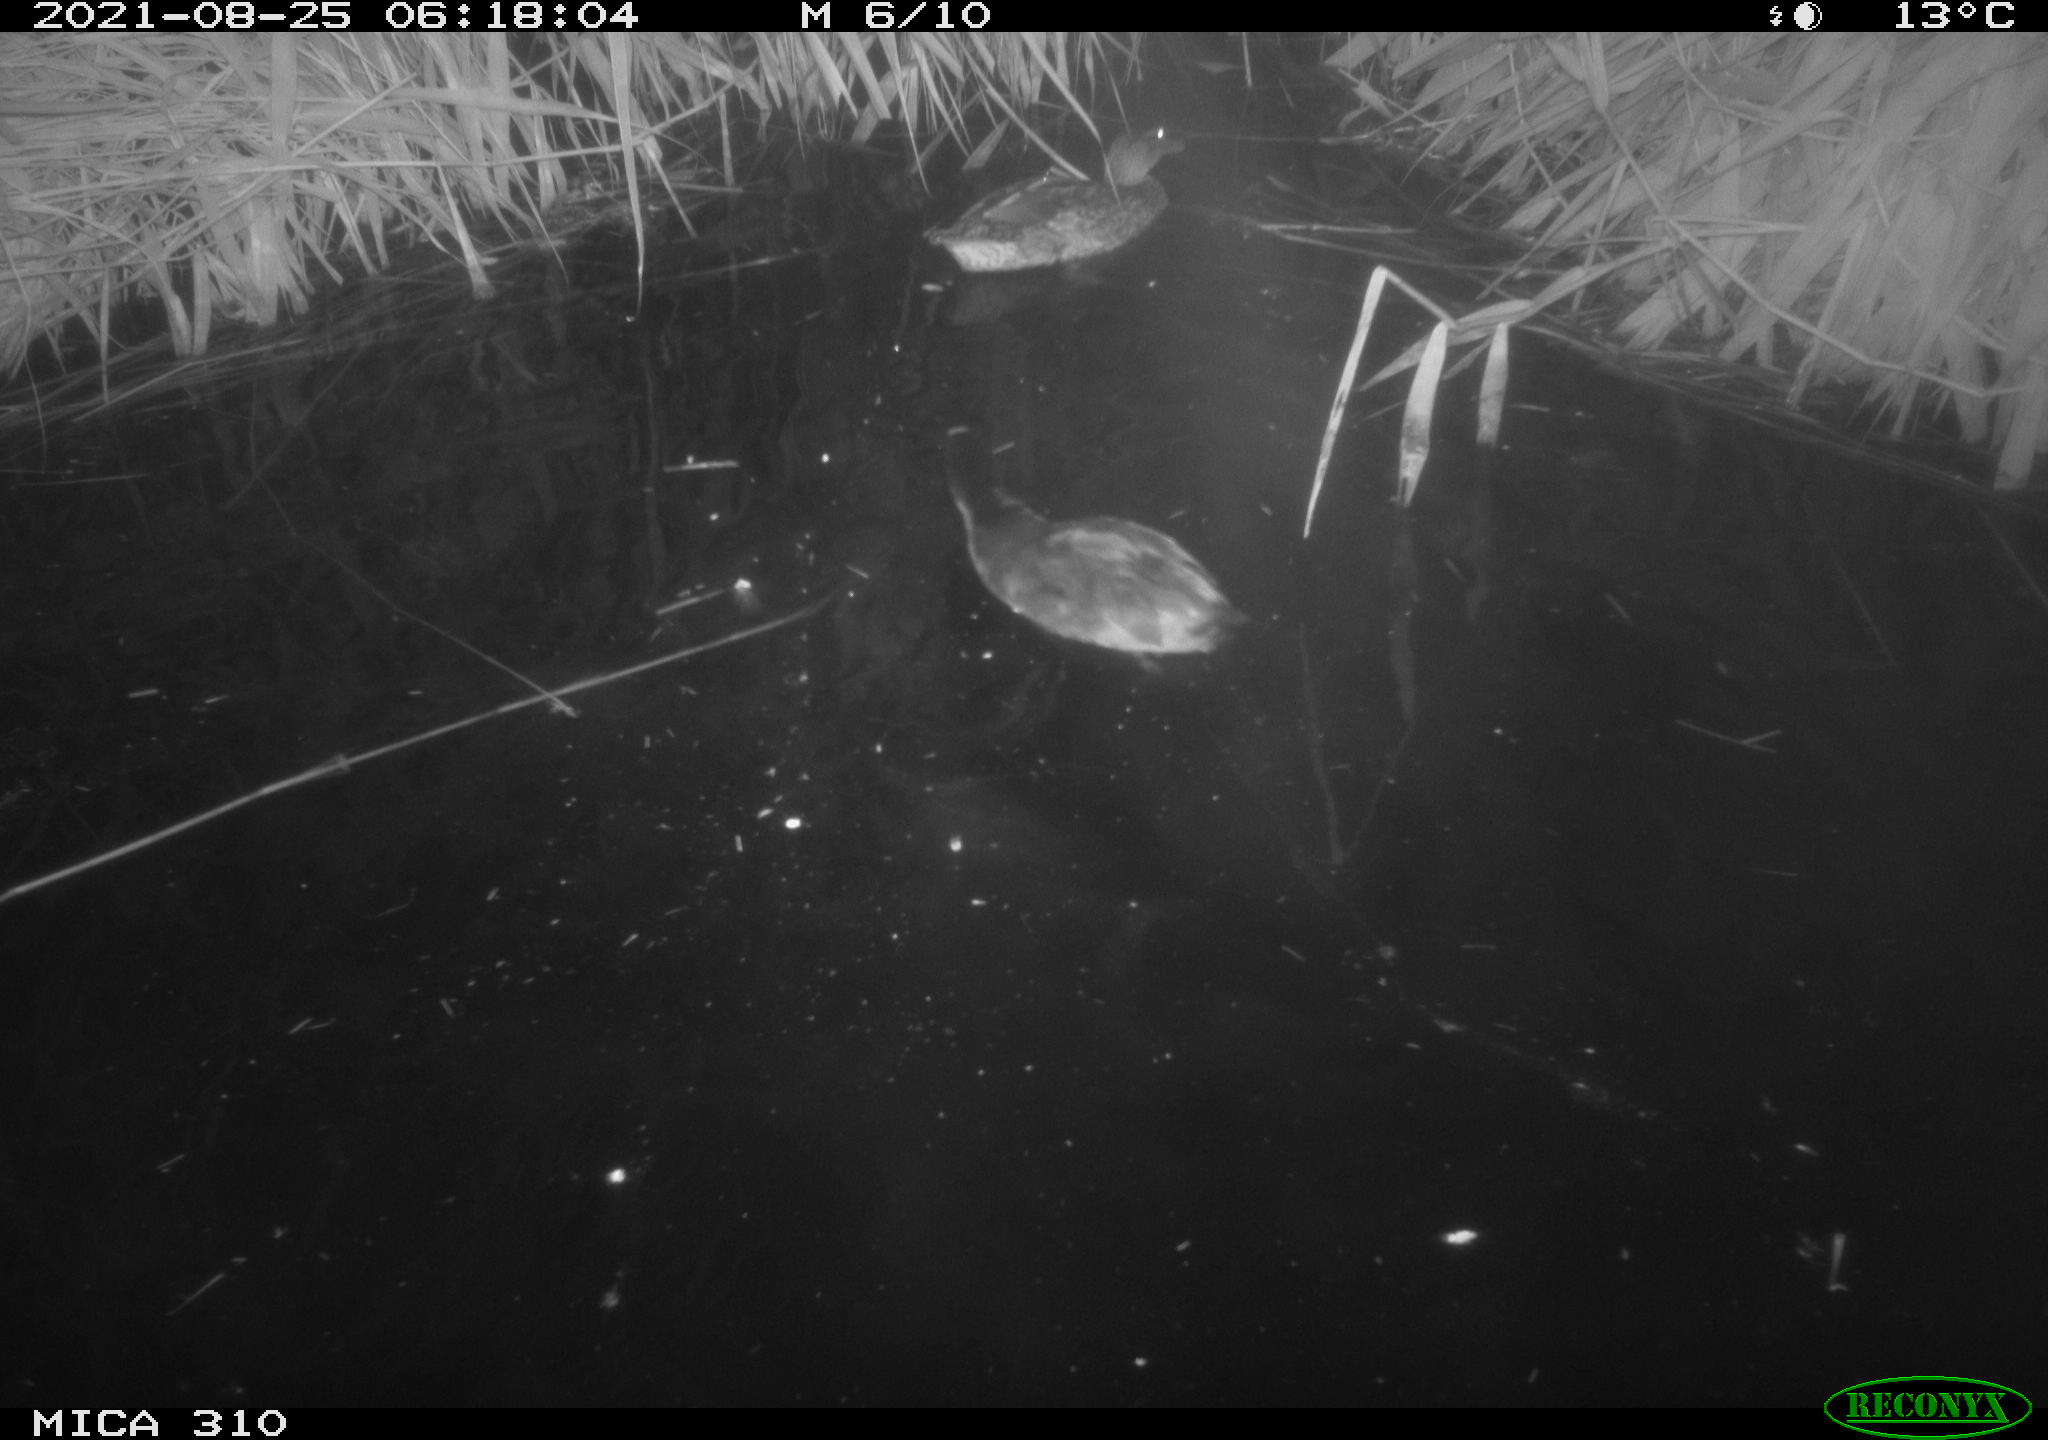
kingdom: Animalia
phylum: Chordata
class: Aves
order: Gruiformes
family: Rallidae
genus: Fulica
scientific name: Fulica atra
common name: Eurasian coot
